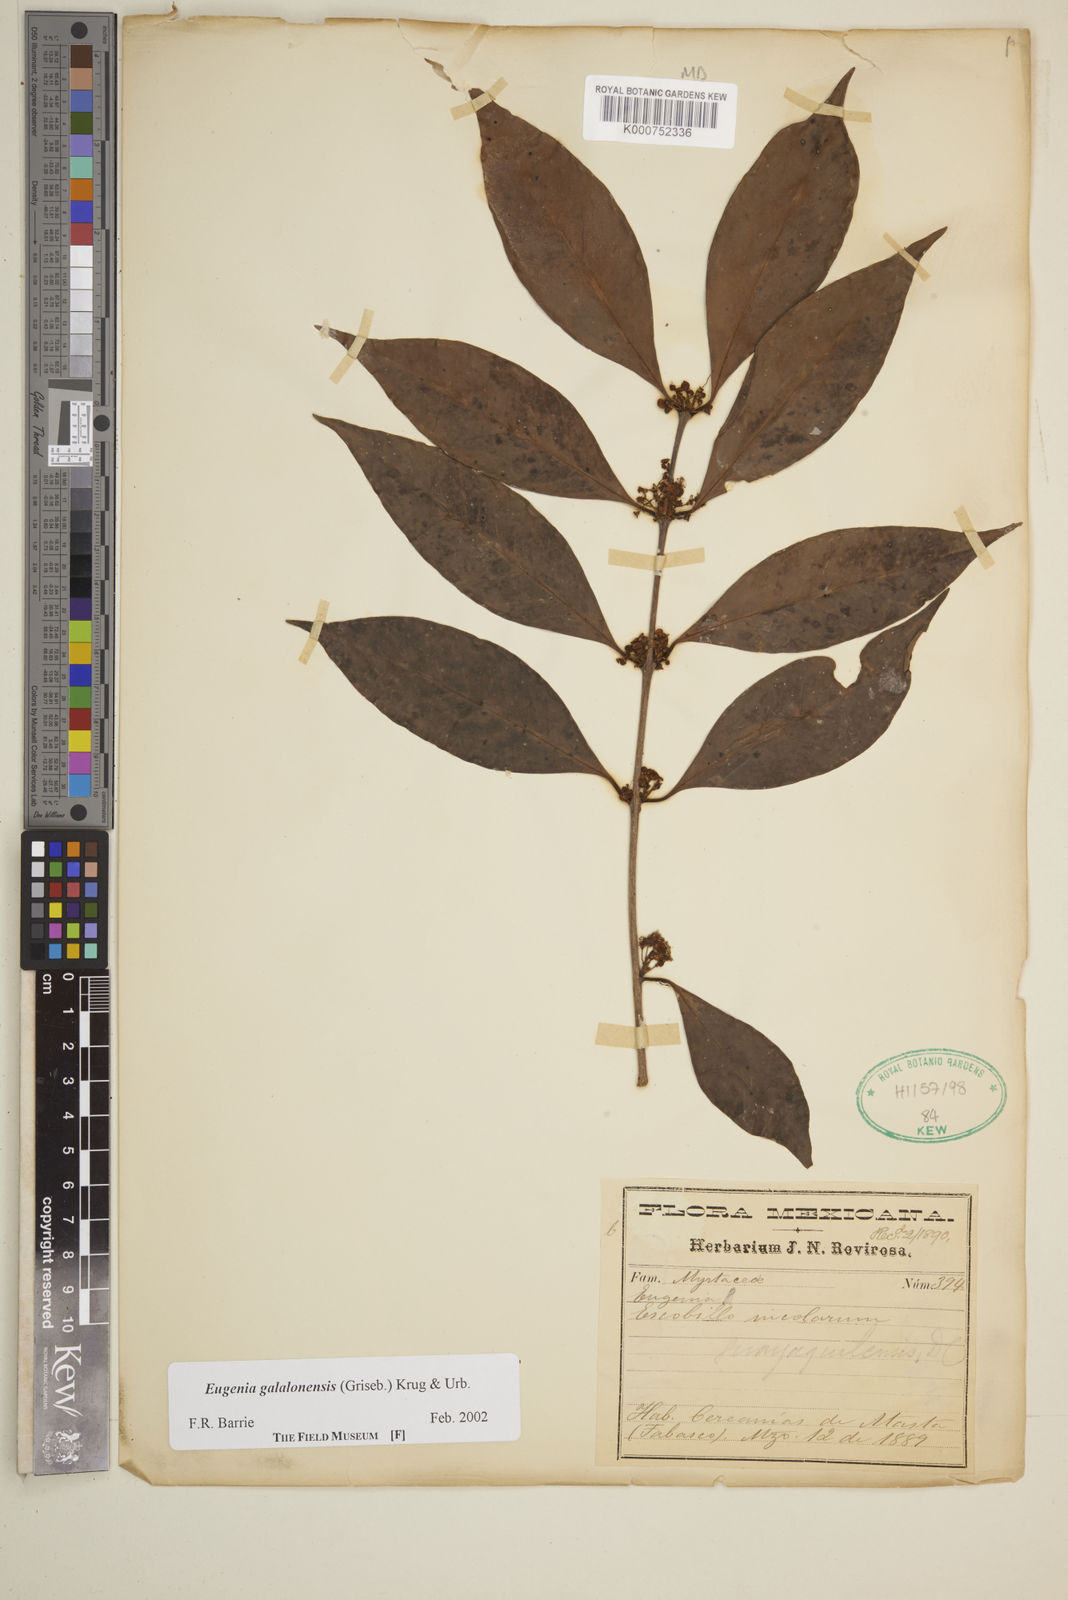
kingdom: Plantae
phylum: Tracheophyta
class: Magnoliopsida
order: Myrtales
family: Myrtaceae
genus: Eugenia
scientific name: Eugenia galalonensis
